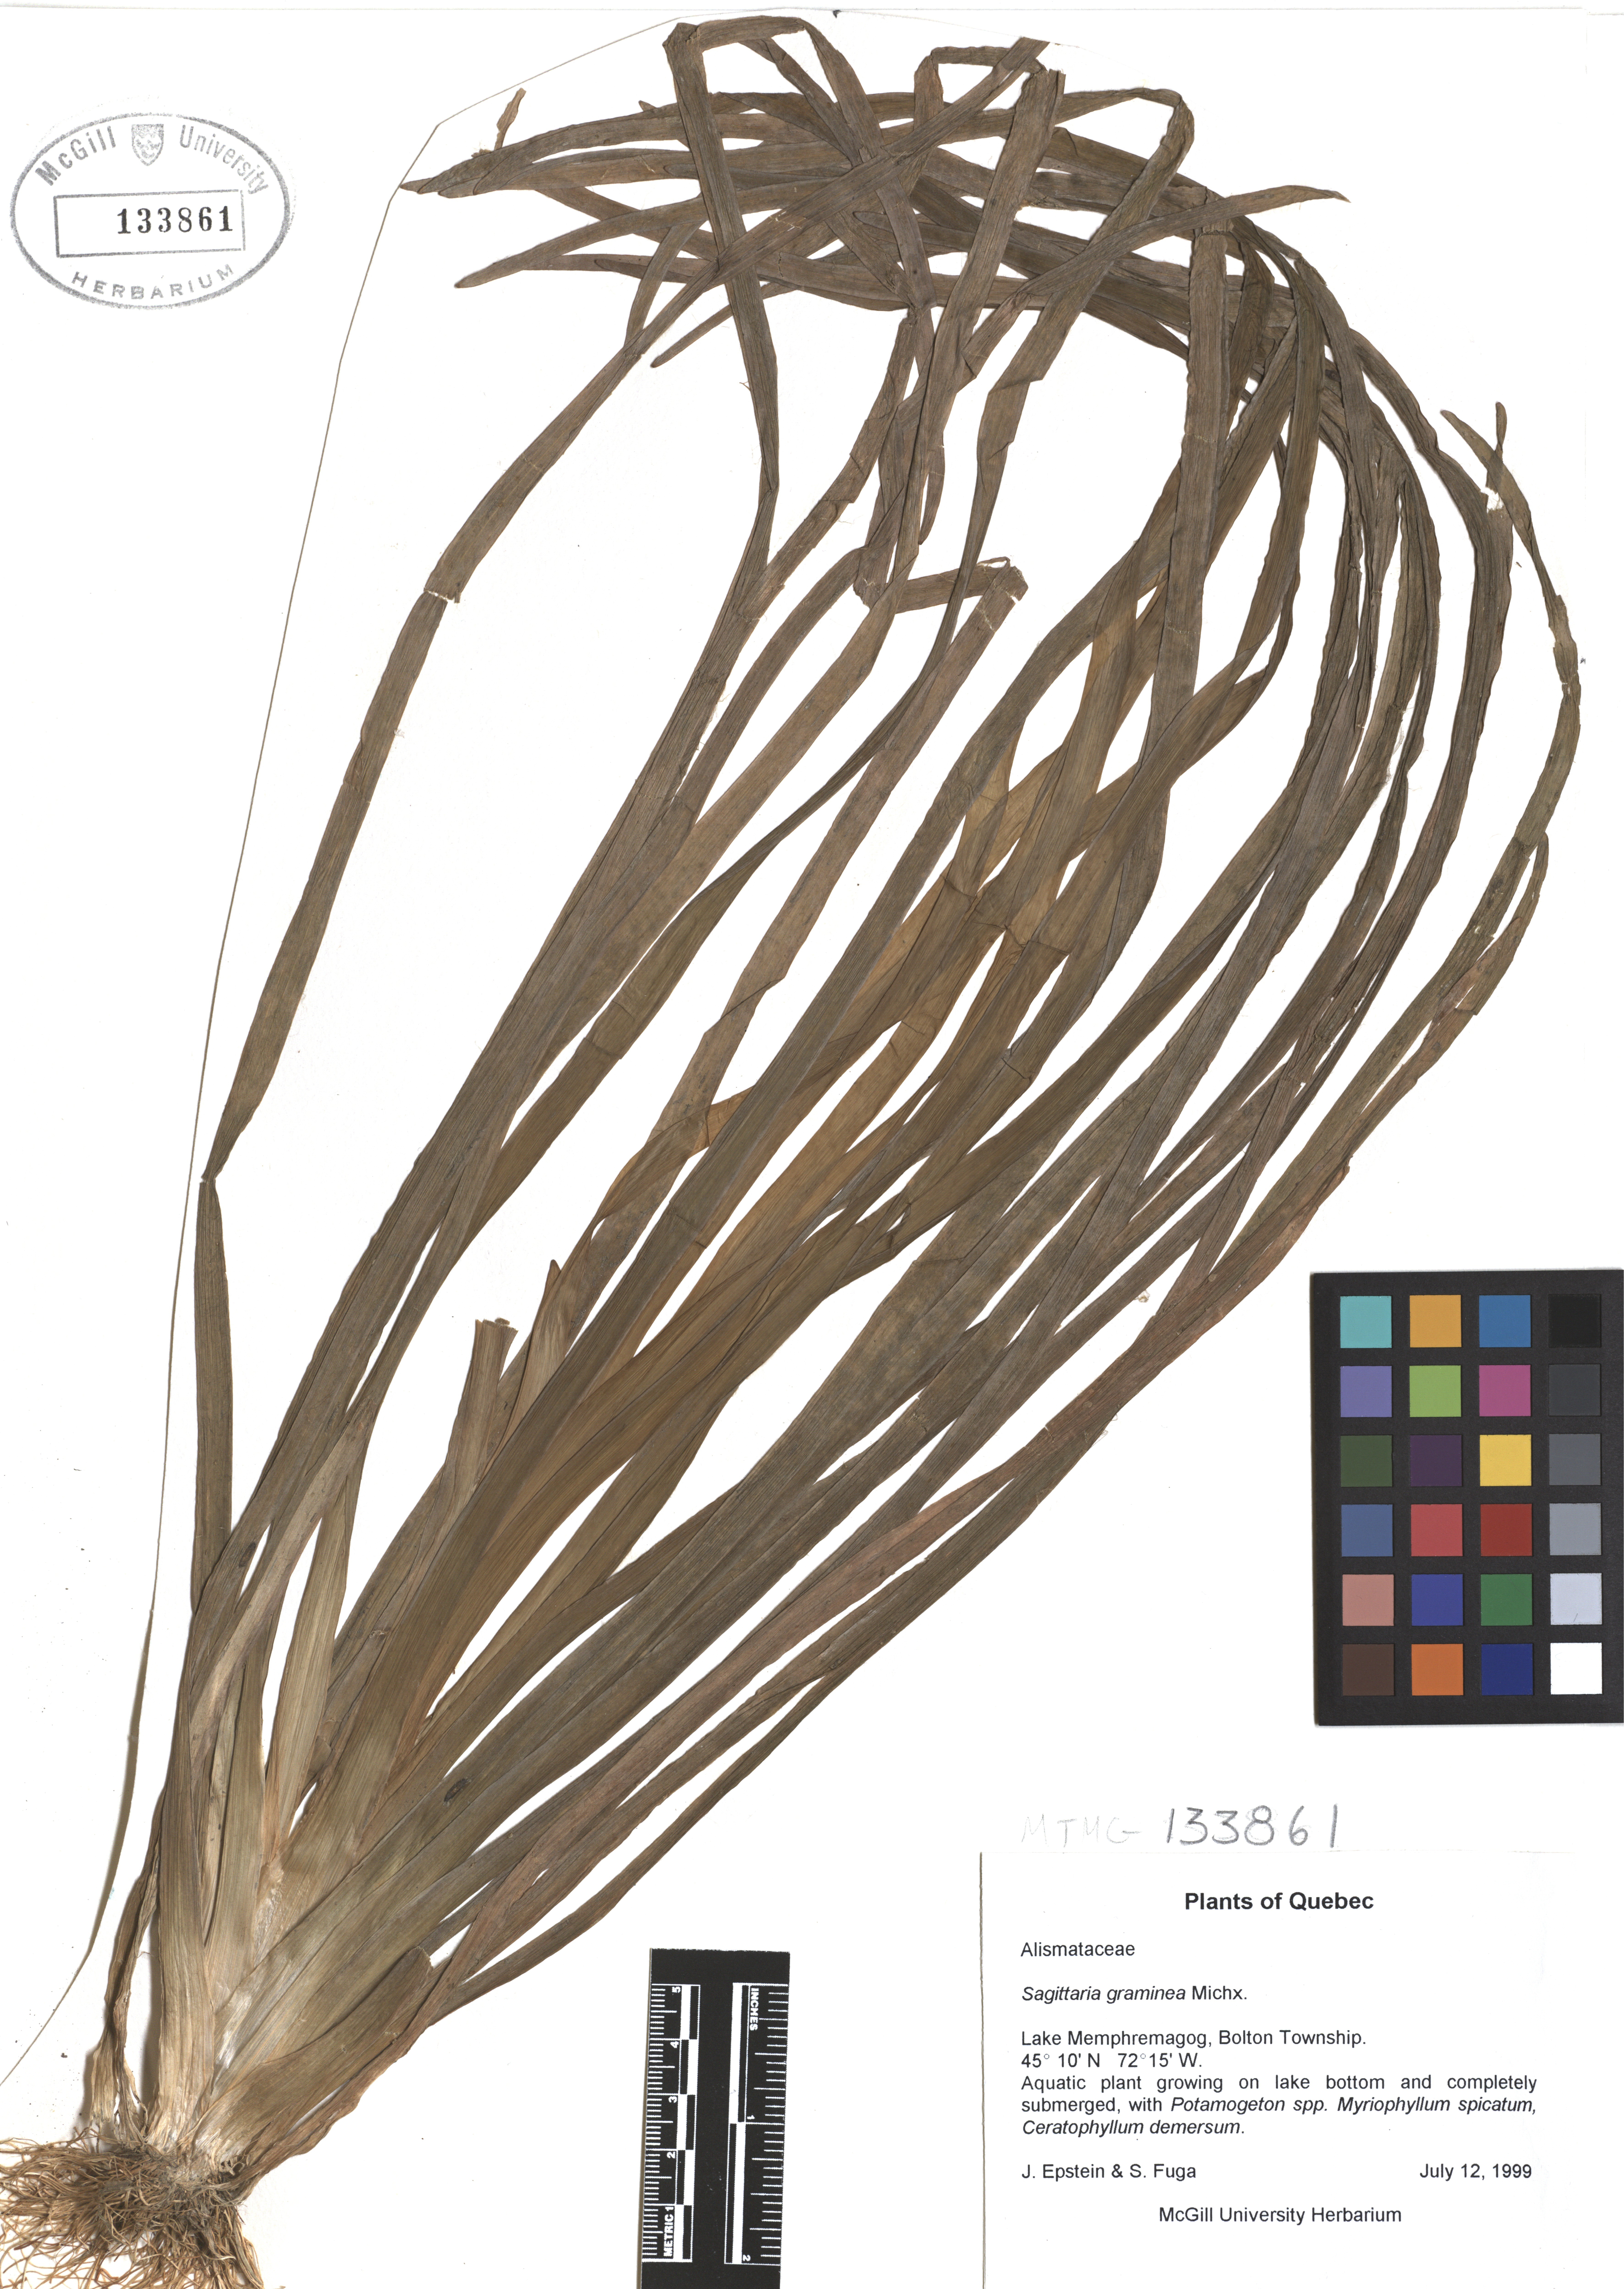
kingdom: Plantae
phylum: Tracheophyta
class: Liliopsida
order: Alismatales
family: Alismataceae
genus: Sagittaria
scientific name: Sagittaria graminea
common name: Grass-leaved arrowhead
